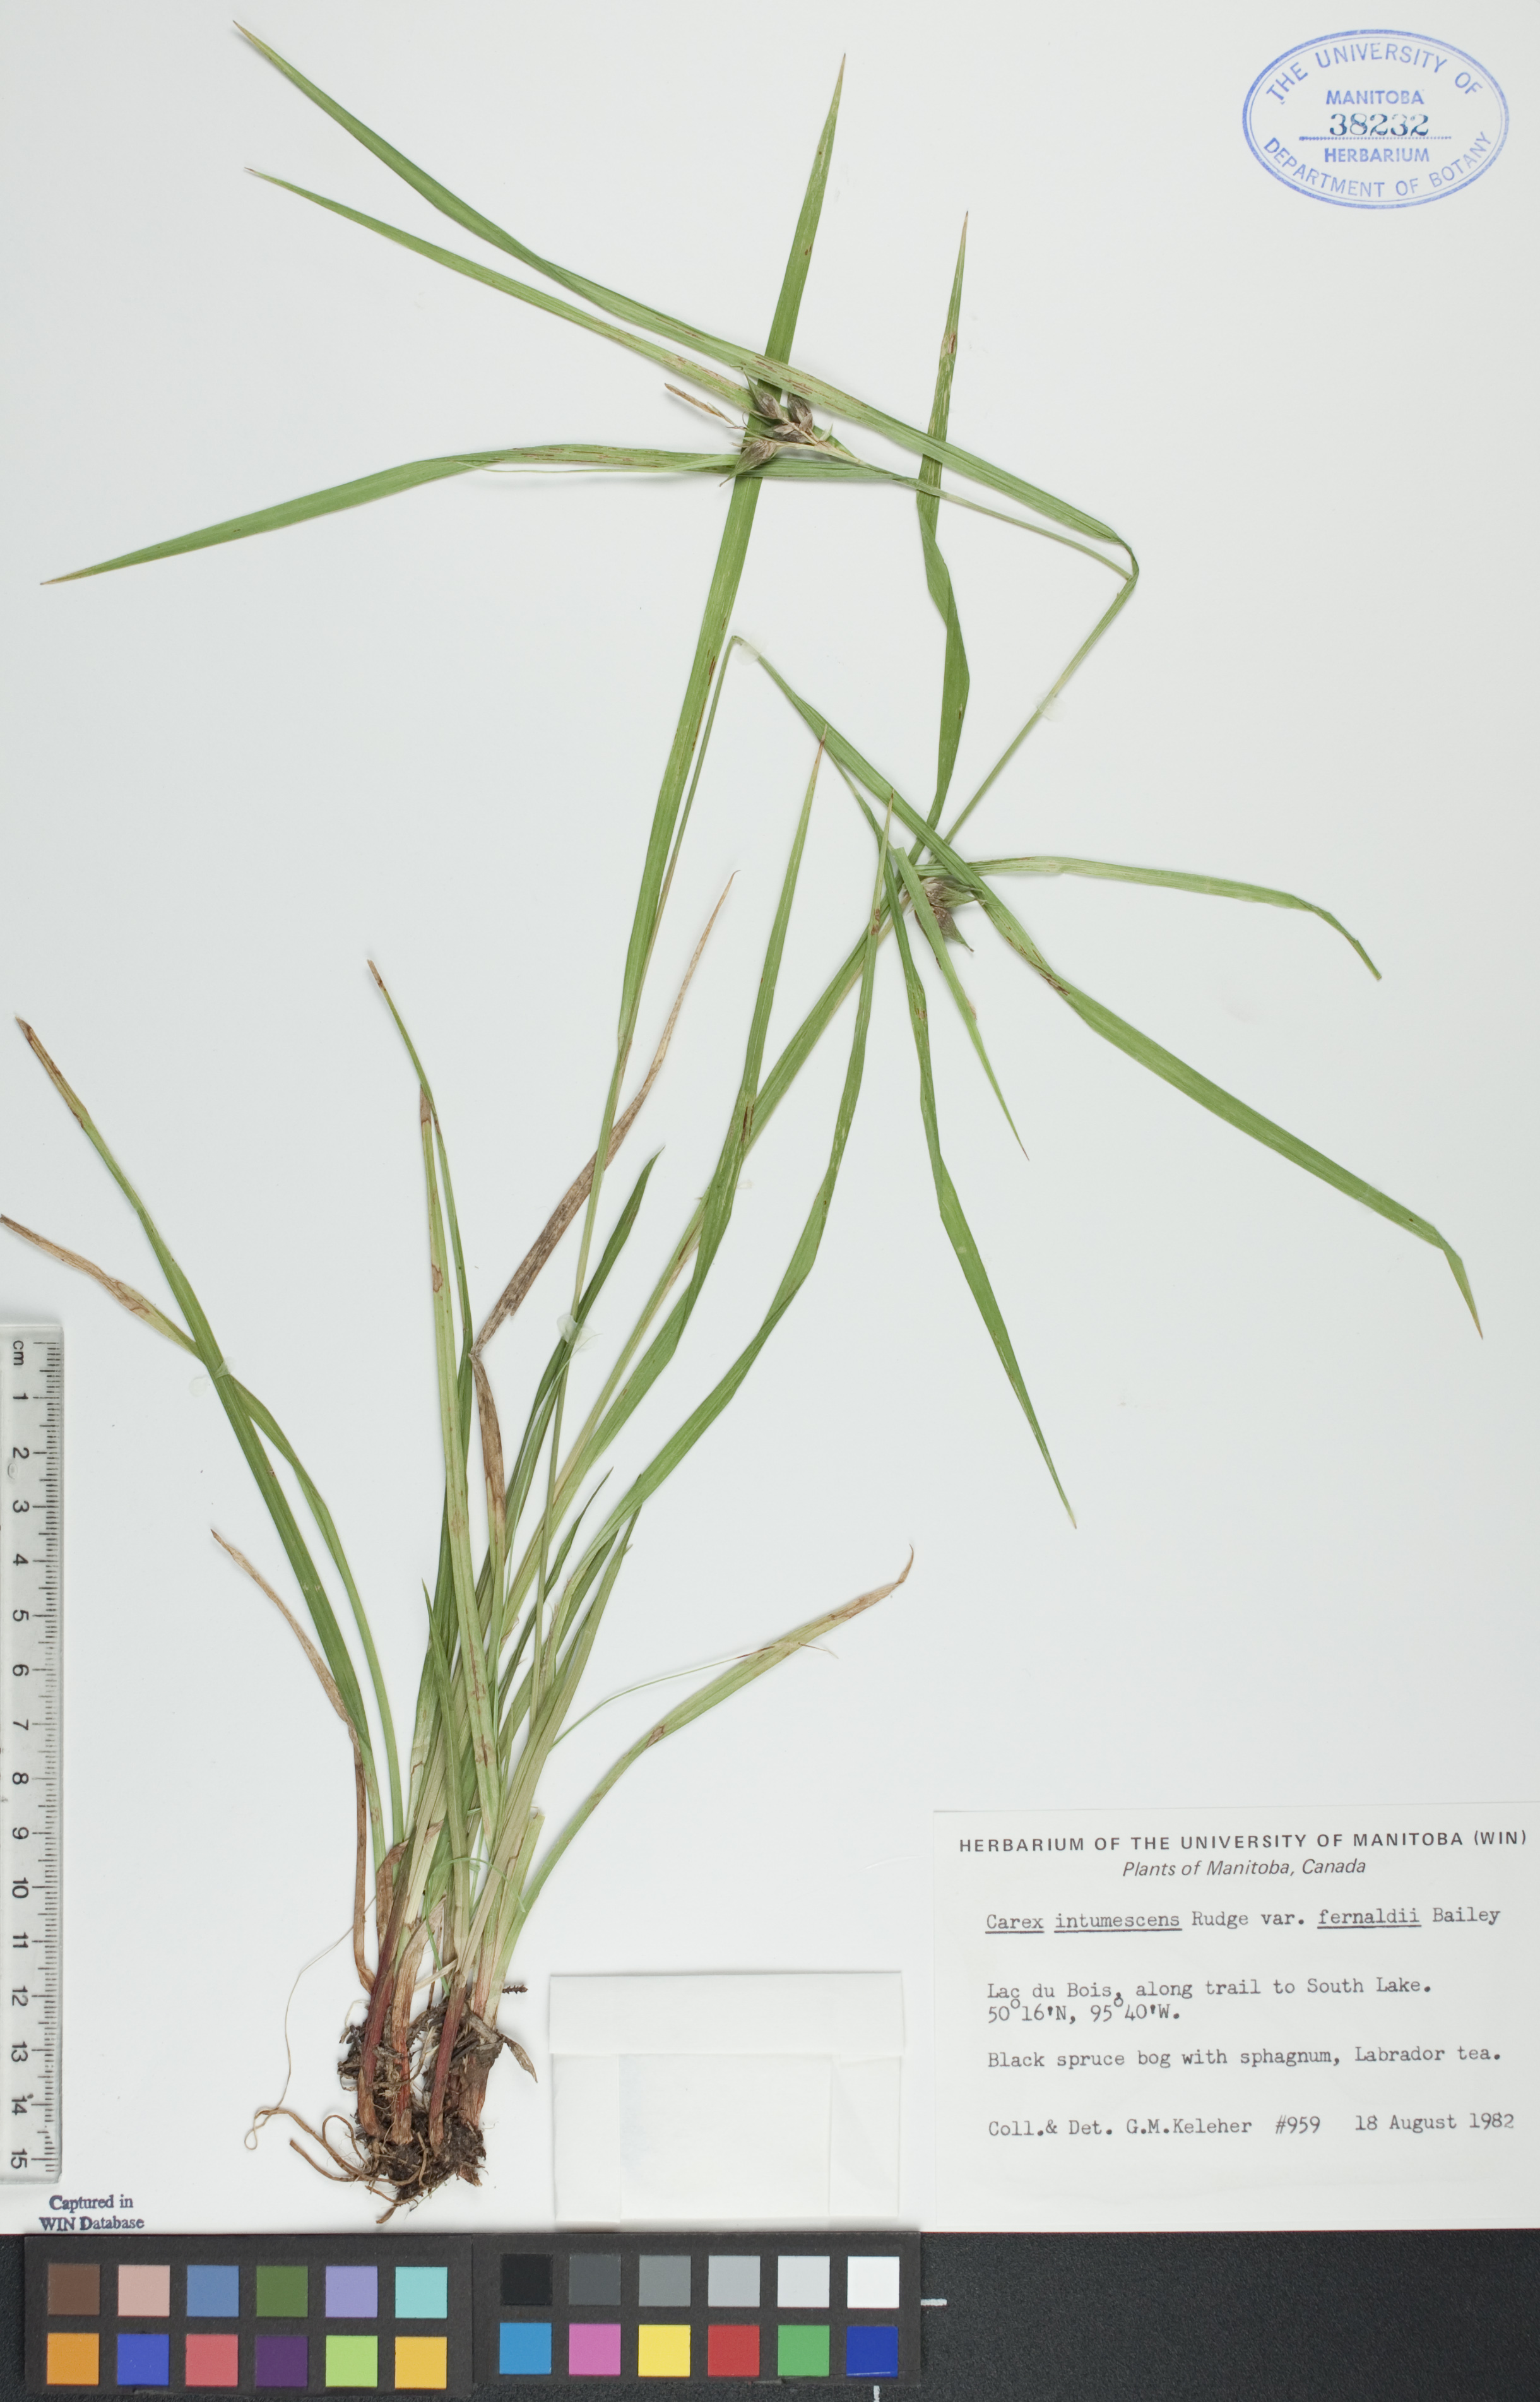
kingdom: Plantae
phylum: Tracheophyta
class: Liliopsida
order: Poales
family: Cyperaceae
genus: Carex
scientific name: Carex intumescens
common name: Greater bladder sedge
